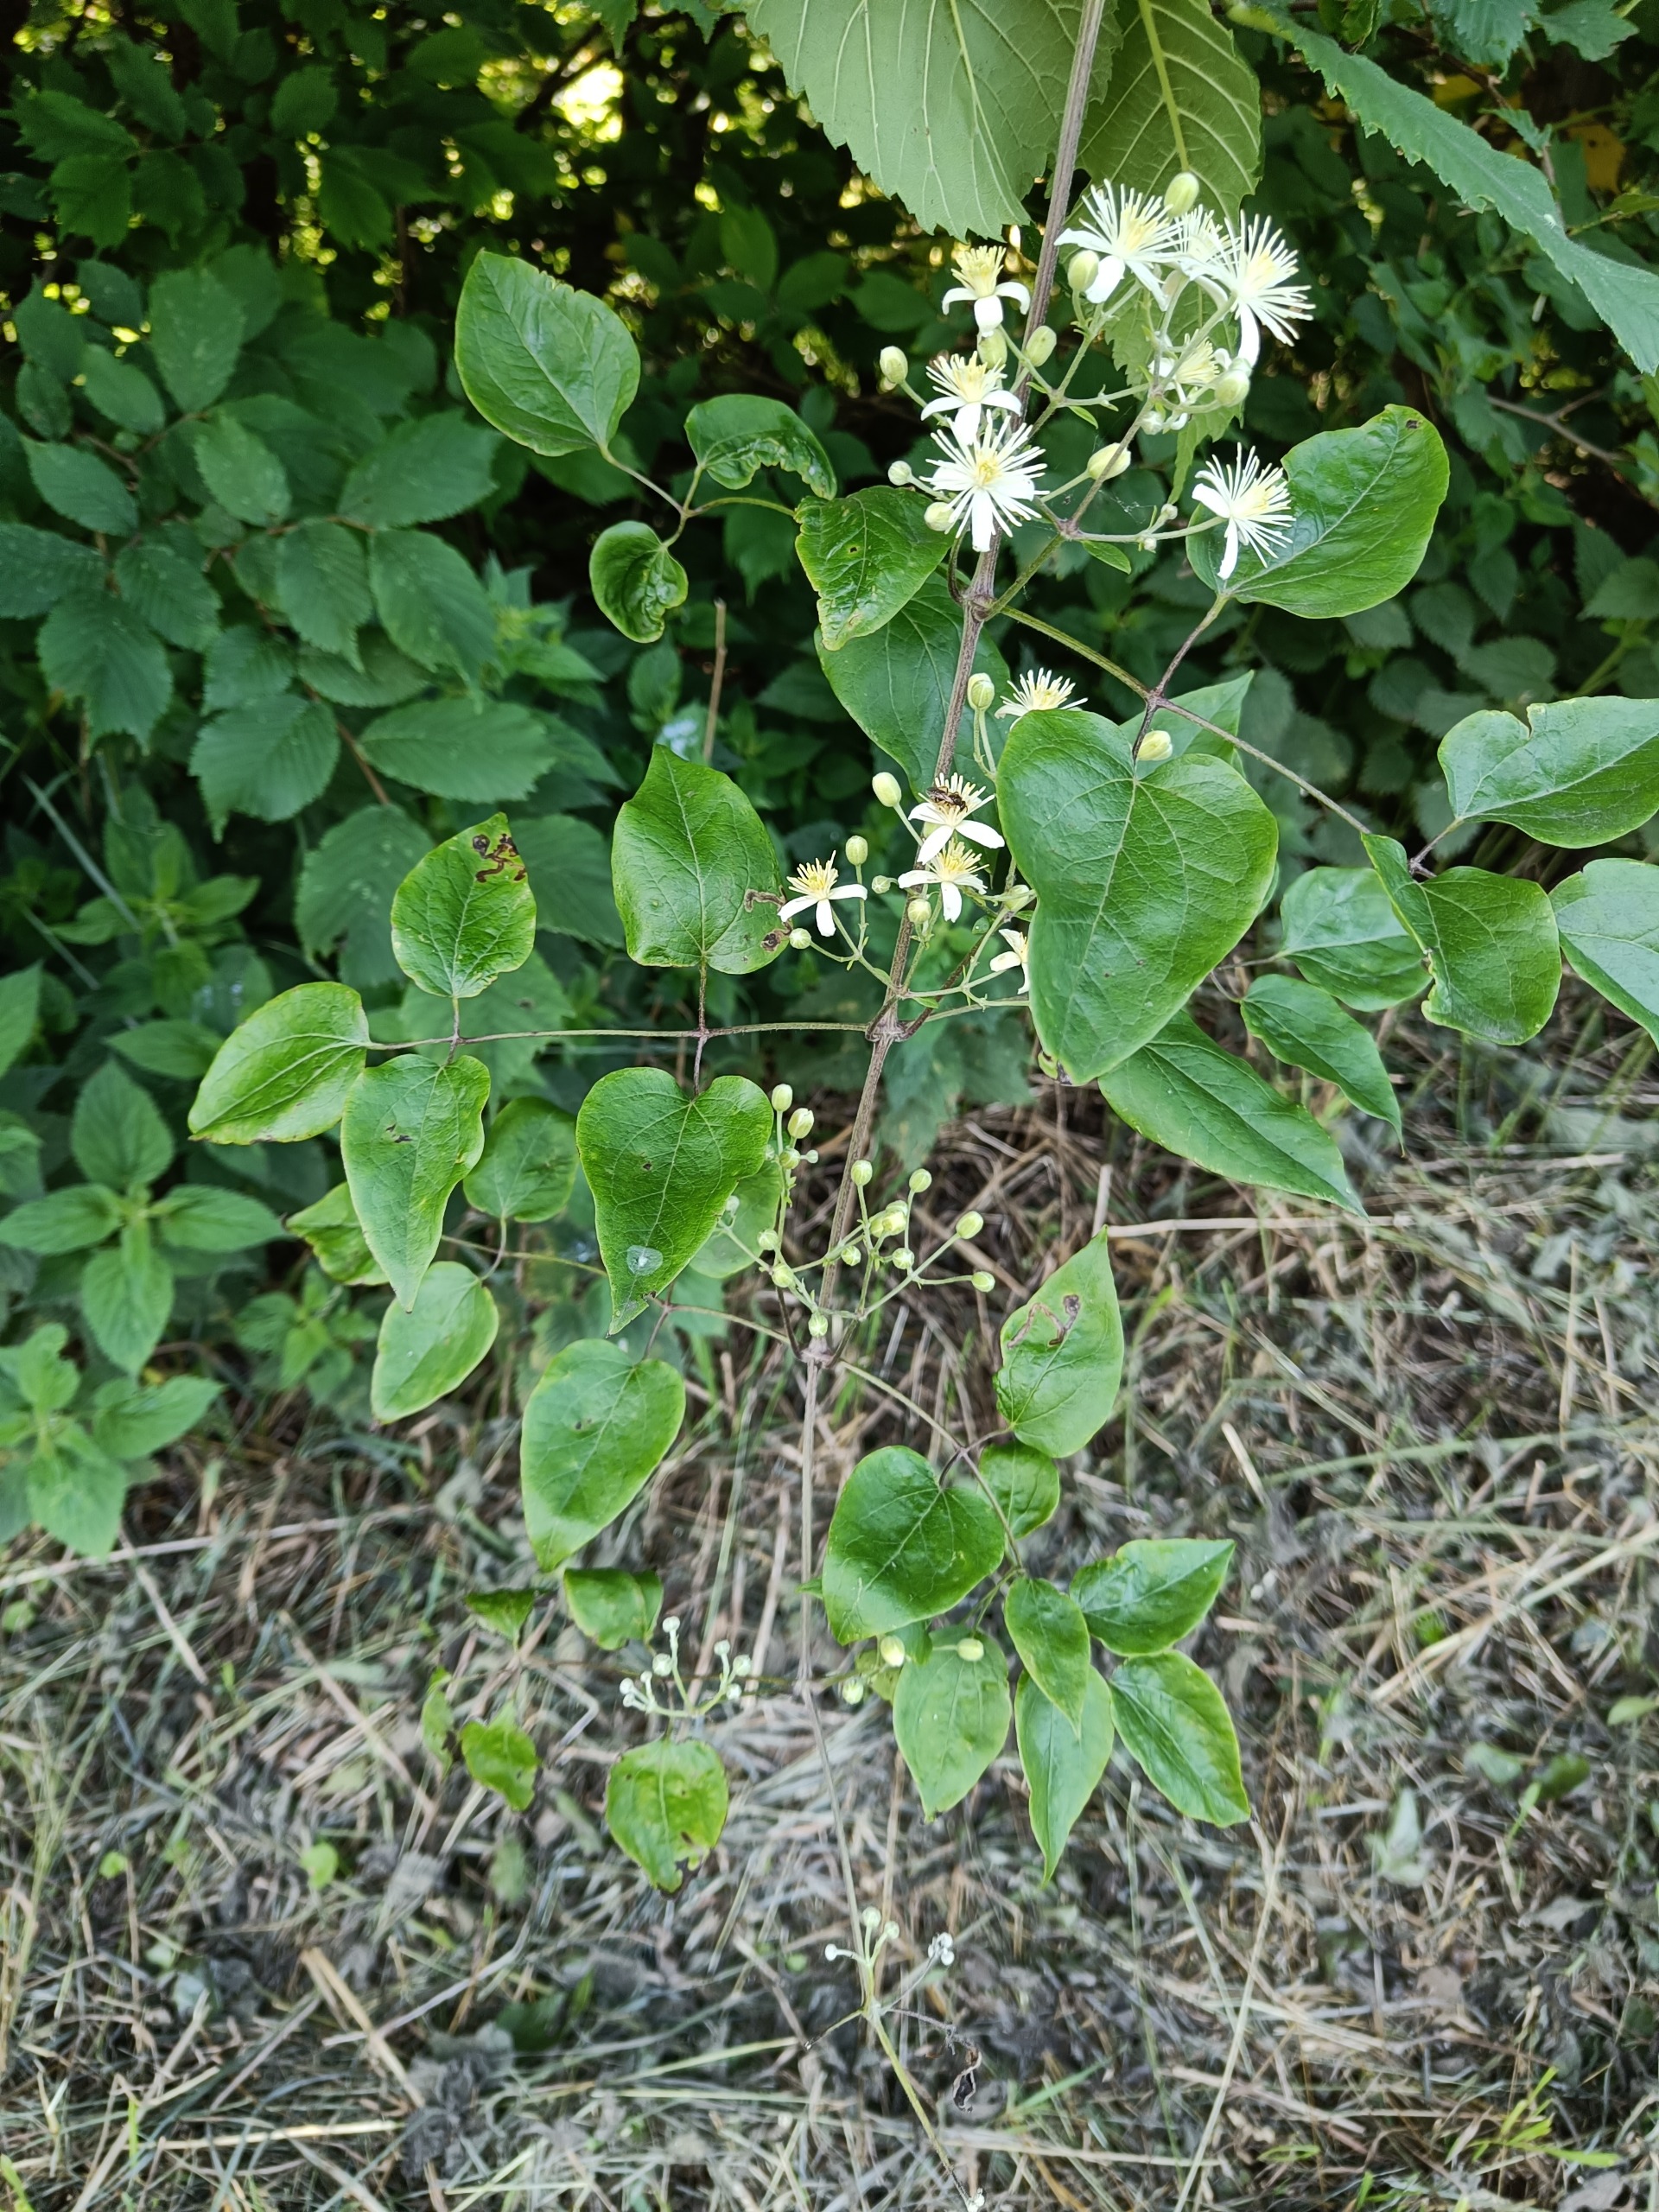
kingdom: Plantae
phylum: Tracheophyta
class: Magnoliopsida
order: Ranunculales
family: Ranunculaceae
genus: Clematis
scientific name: Clematis vitalba
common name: Skovranke
